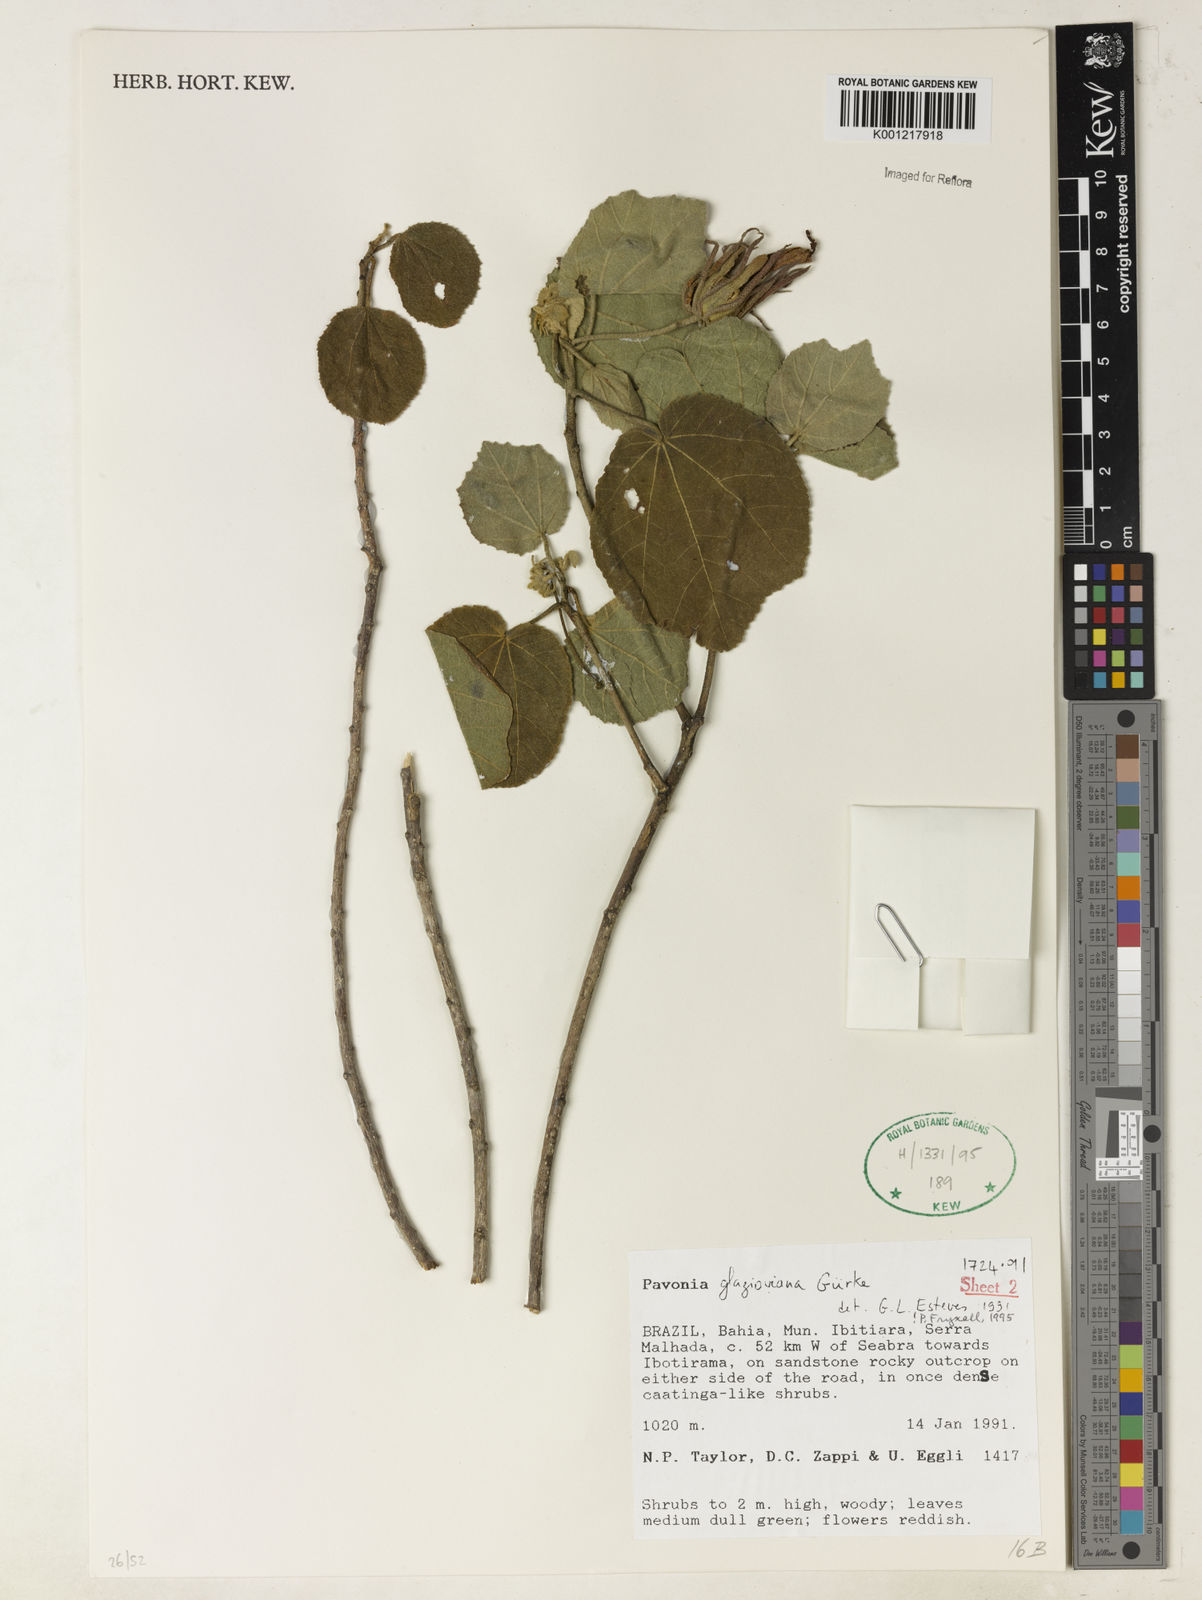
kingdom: Plantae
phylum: Tracheophyta
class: Magnoliopsida
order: Malvales
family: Malvaceae
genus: Pavonia
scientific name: Pavonia
